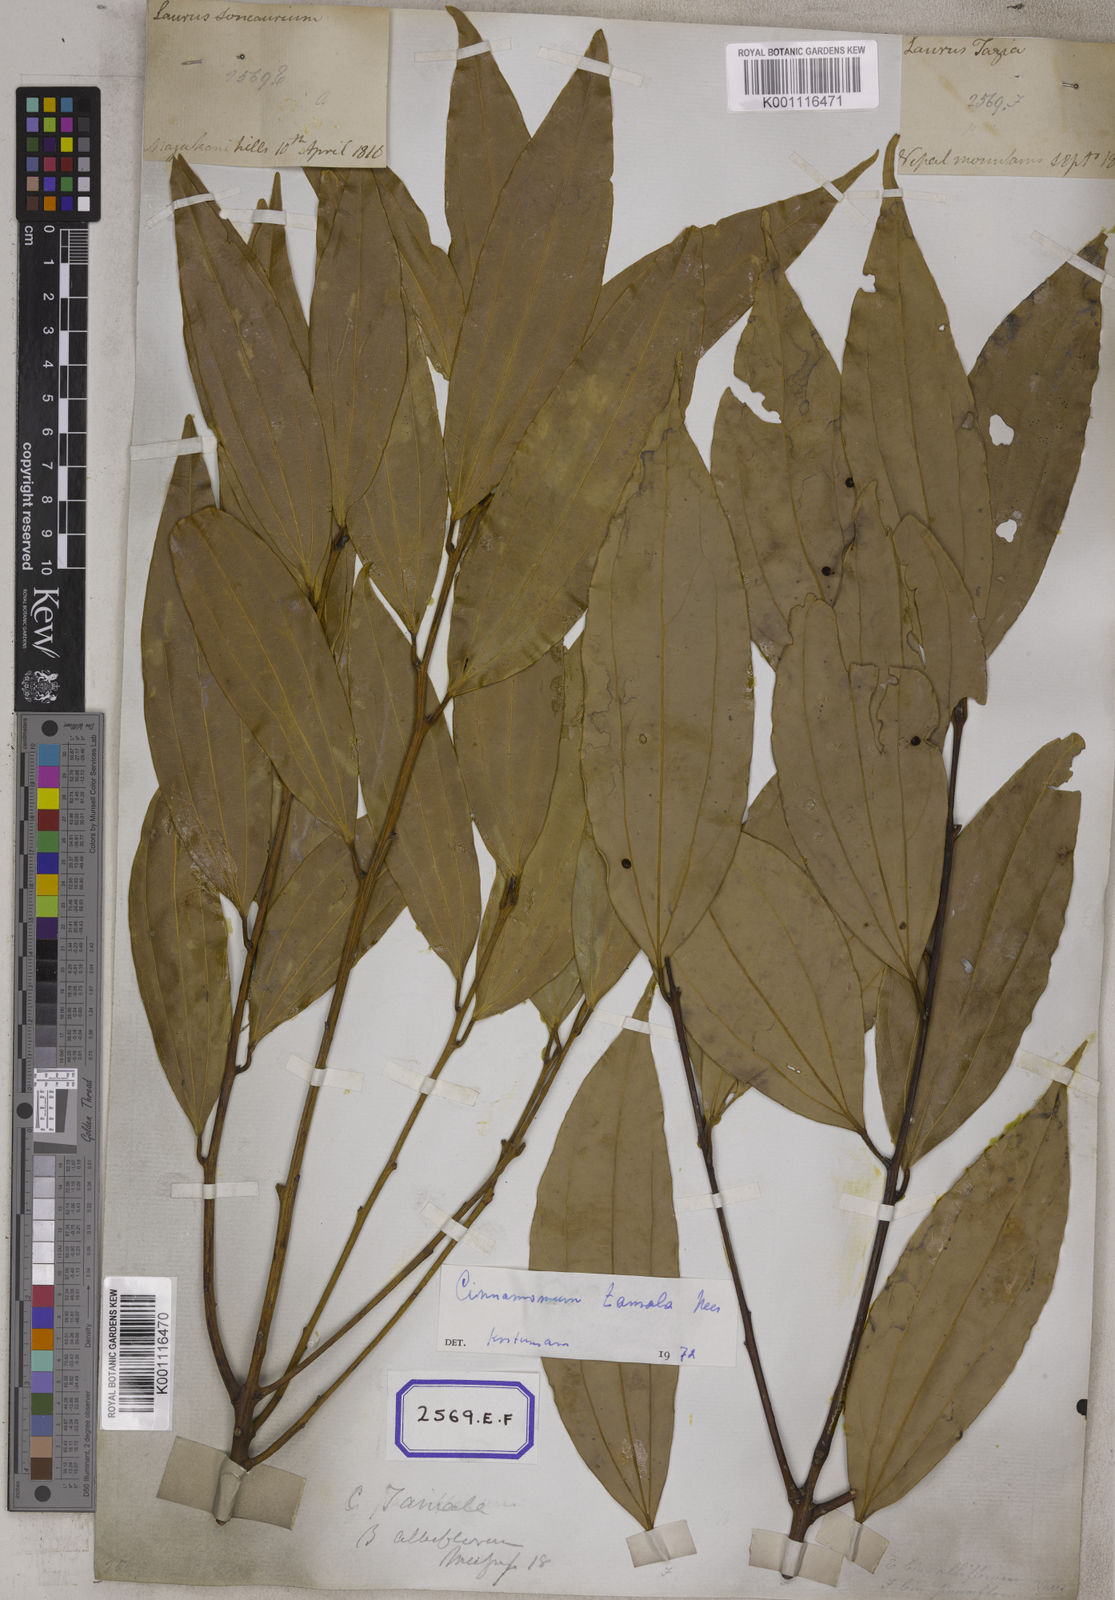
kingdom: Plantae
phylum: Tracheophyta
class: Magnoliopsida
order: Laurales
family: Lauraceae
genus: Cinnamomum
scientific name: Cinnamomum tamala
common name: Indian bay leaves
